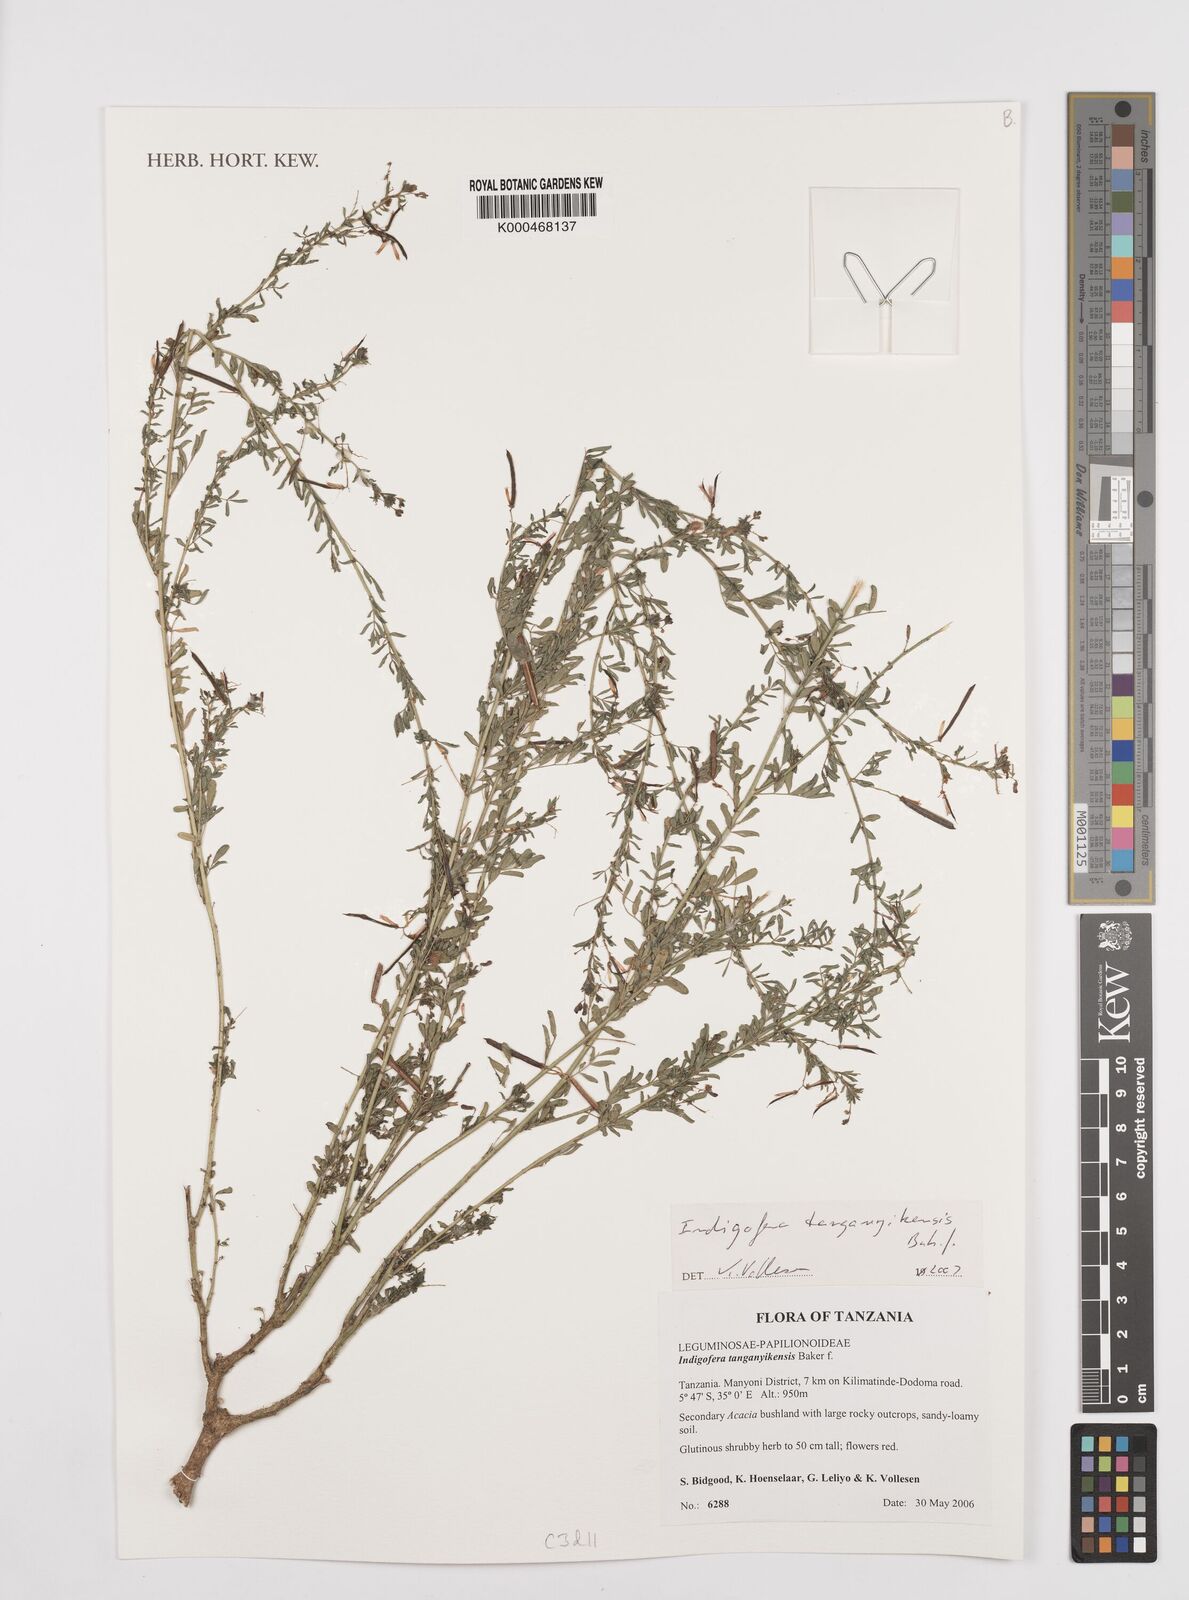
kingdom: Plantae
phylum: Tracheophyta
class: Magnoliopsida
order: Fabales
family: Fabaceae
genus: Indigofera
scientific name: Indigofera tanganyikensis
